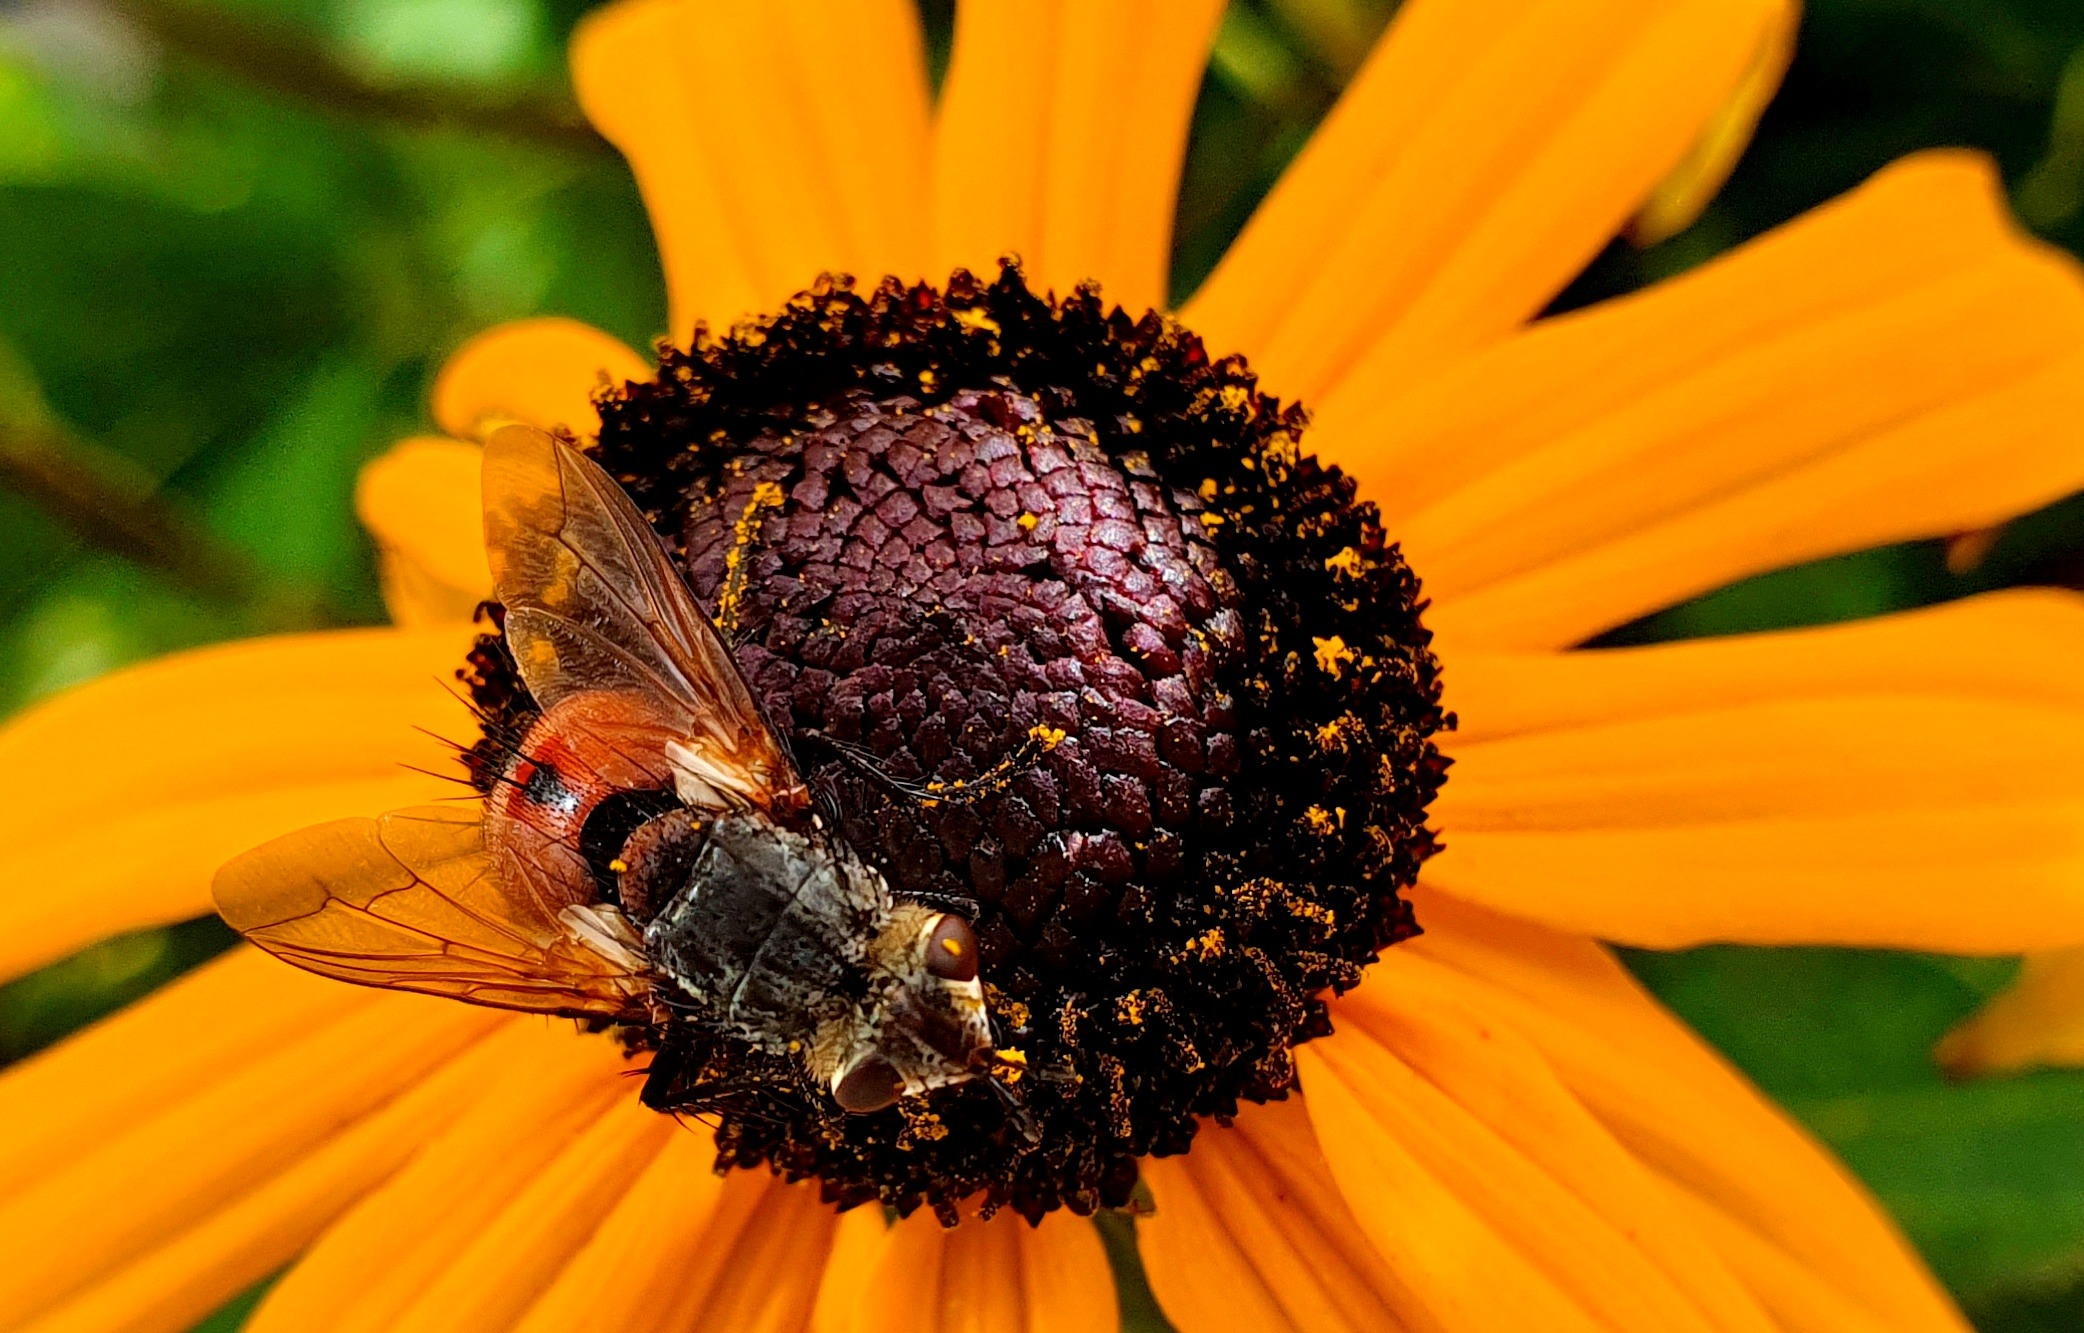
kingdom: Animalia
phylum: Arthropoda
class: Insecta
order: Diptera
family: Tachinidae
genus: Tachina
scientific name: Tachina fera
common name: Mellemfluen oskar
